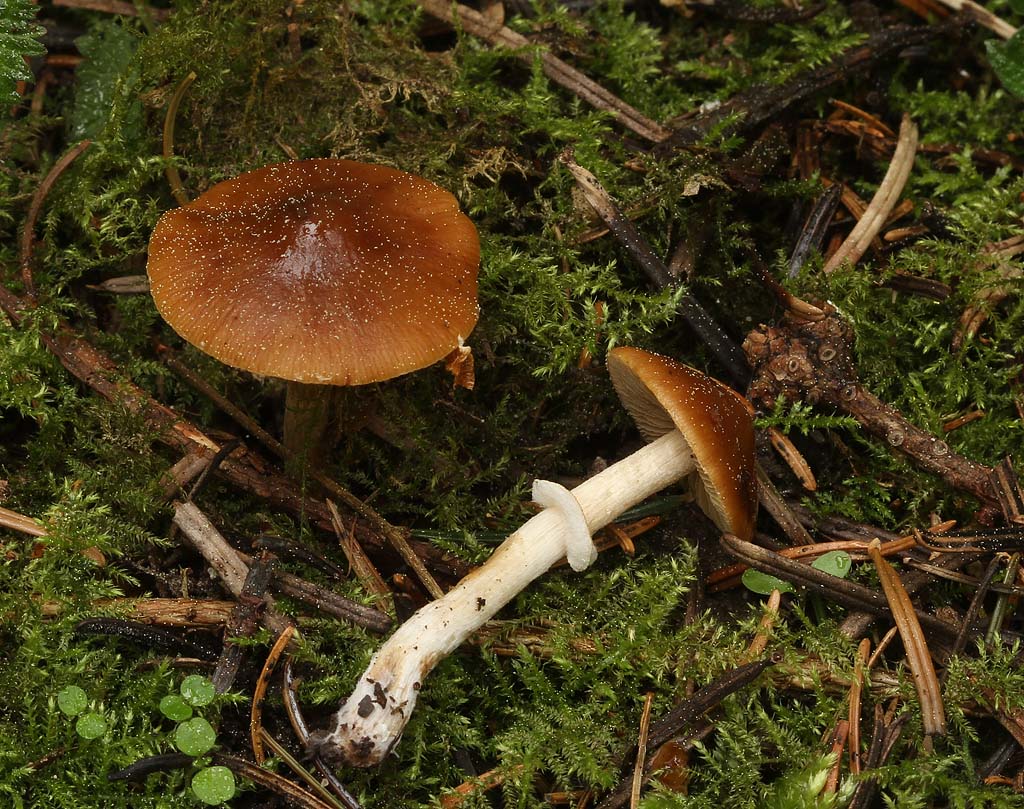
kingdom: Fungi
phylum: Basidiomycota
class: Agaricomycetes
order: Agaricales
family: Bolbitiaceae
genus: Conocybe
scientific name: Conocybe aporos
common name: tidlig dansehat
